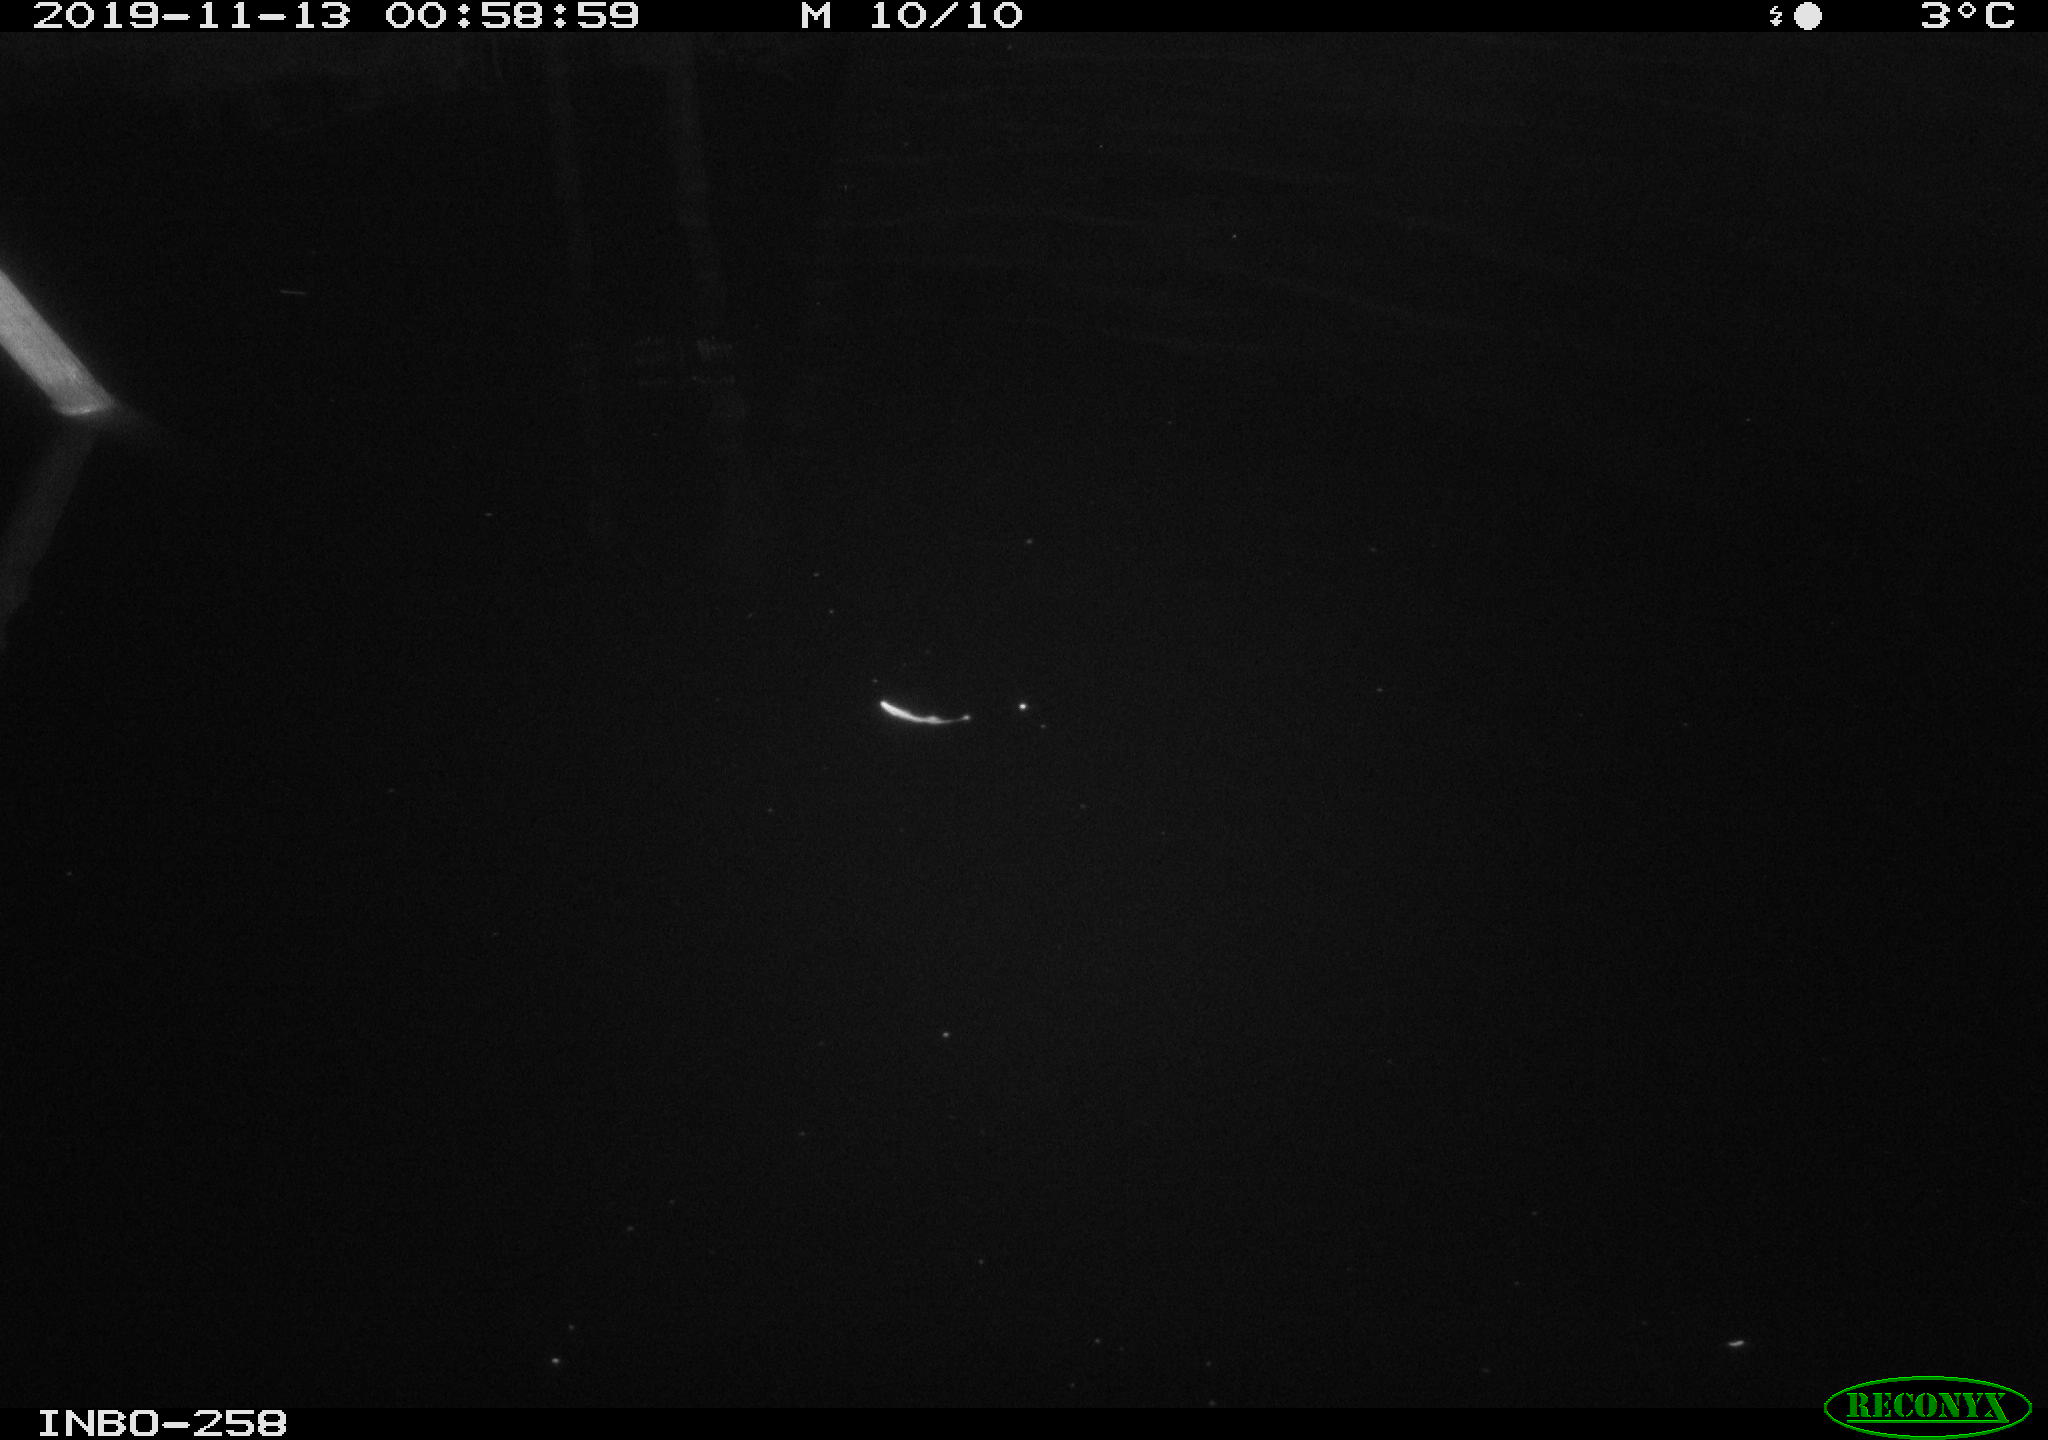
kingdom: Animalia
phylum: Chordata
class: Aves
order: Anseriformes
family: Anatidae
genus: Anas
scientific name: Anas platyrhynchos
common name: Mallard
